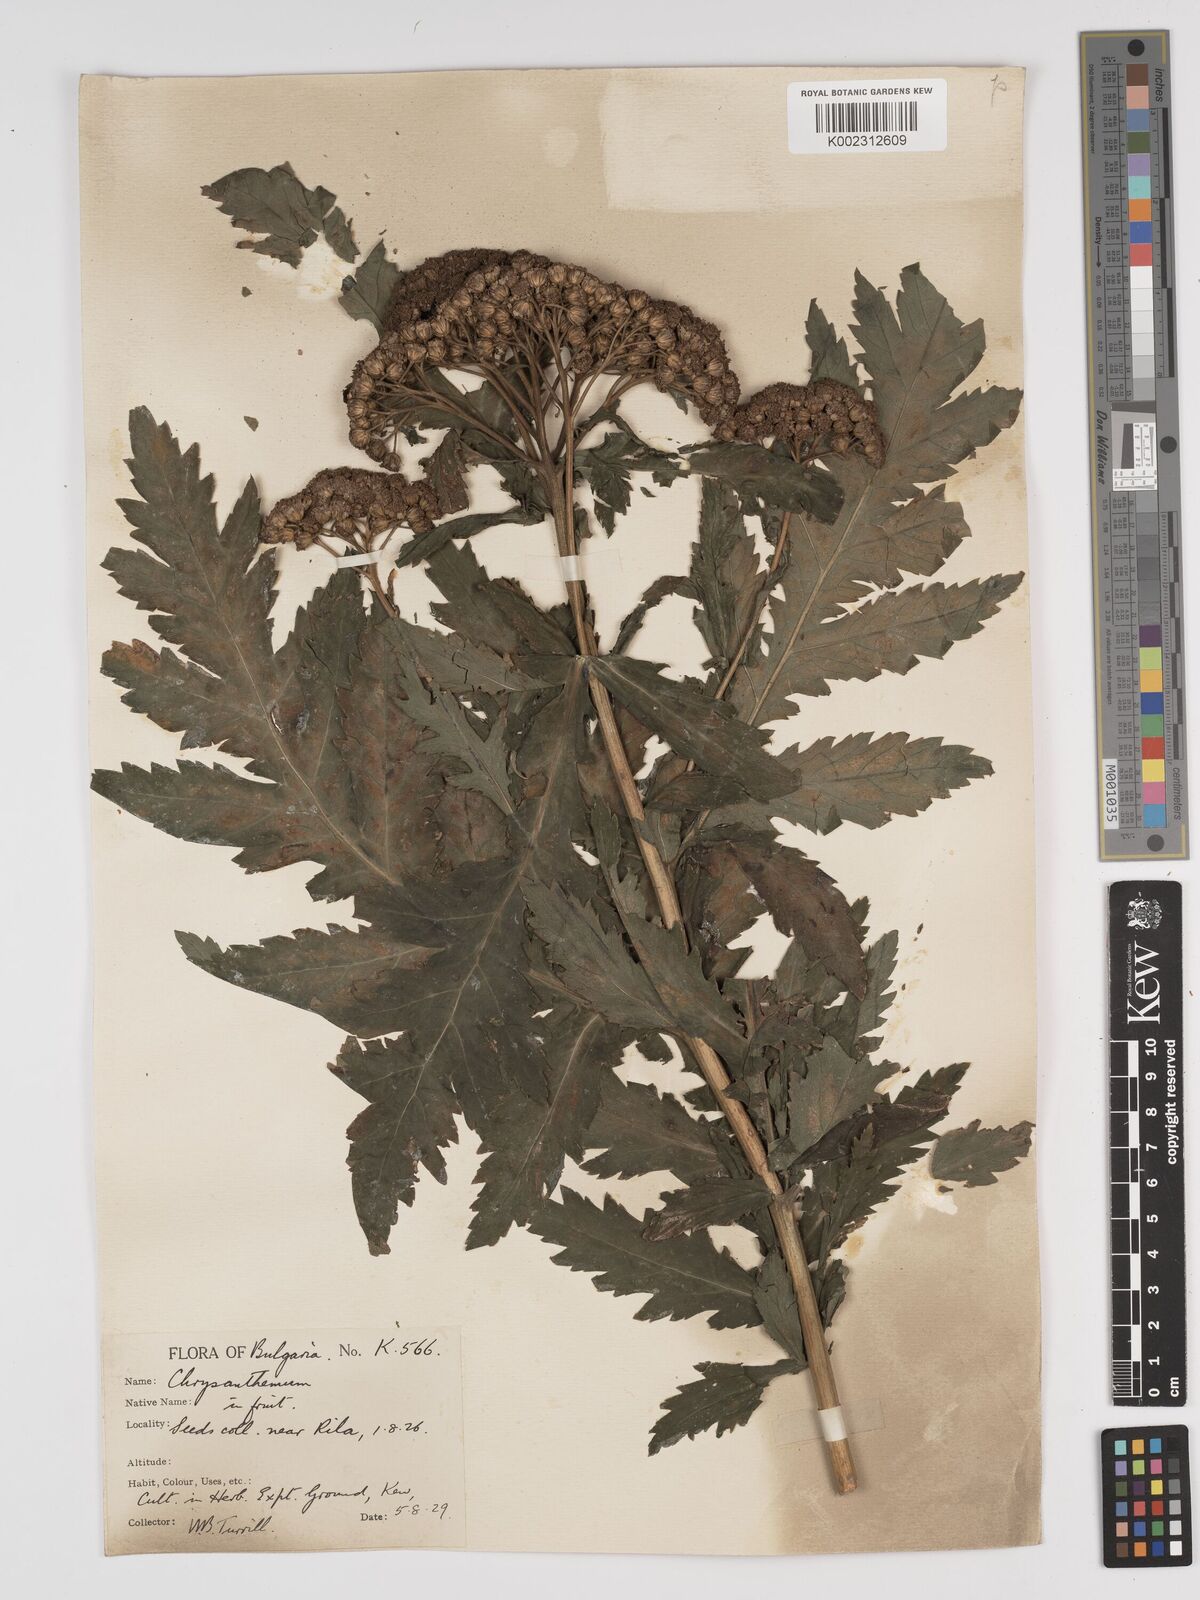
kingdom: Plantae
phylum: Tracheophyta
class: Magnoliopsida
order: Asterales
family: Asteraceae
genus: Tanacetum
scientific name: Tanacetum macrophyllum
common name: Rayed tansy
